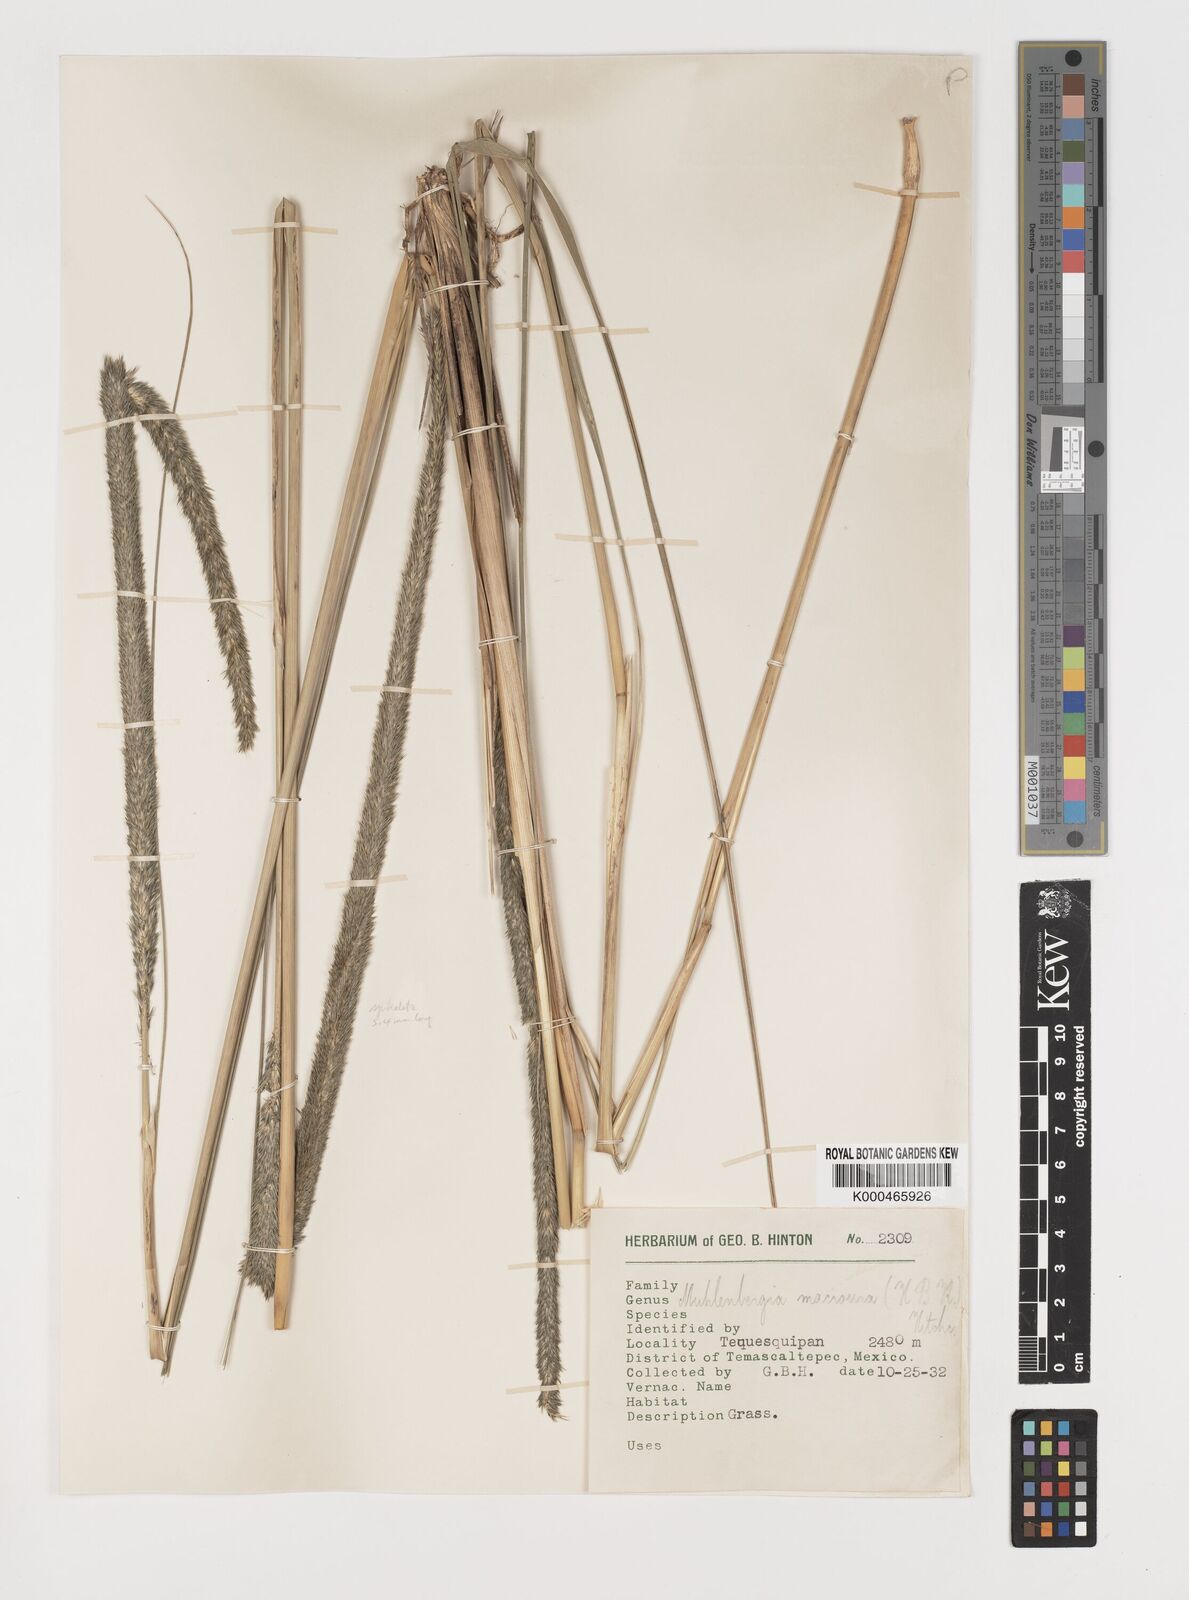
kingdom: Plantae
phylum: Tracheophyta
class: Liliopsida
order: Poales
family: Poaceae
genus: Muhlenbergia
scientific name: Muhlenbergia macroura
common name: Mexican broomroot
